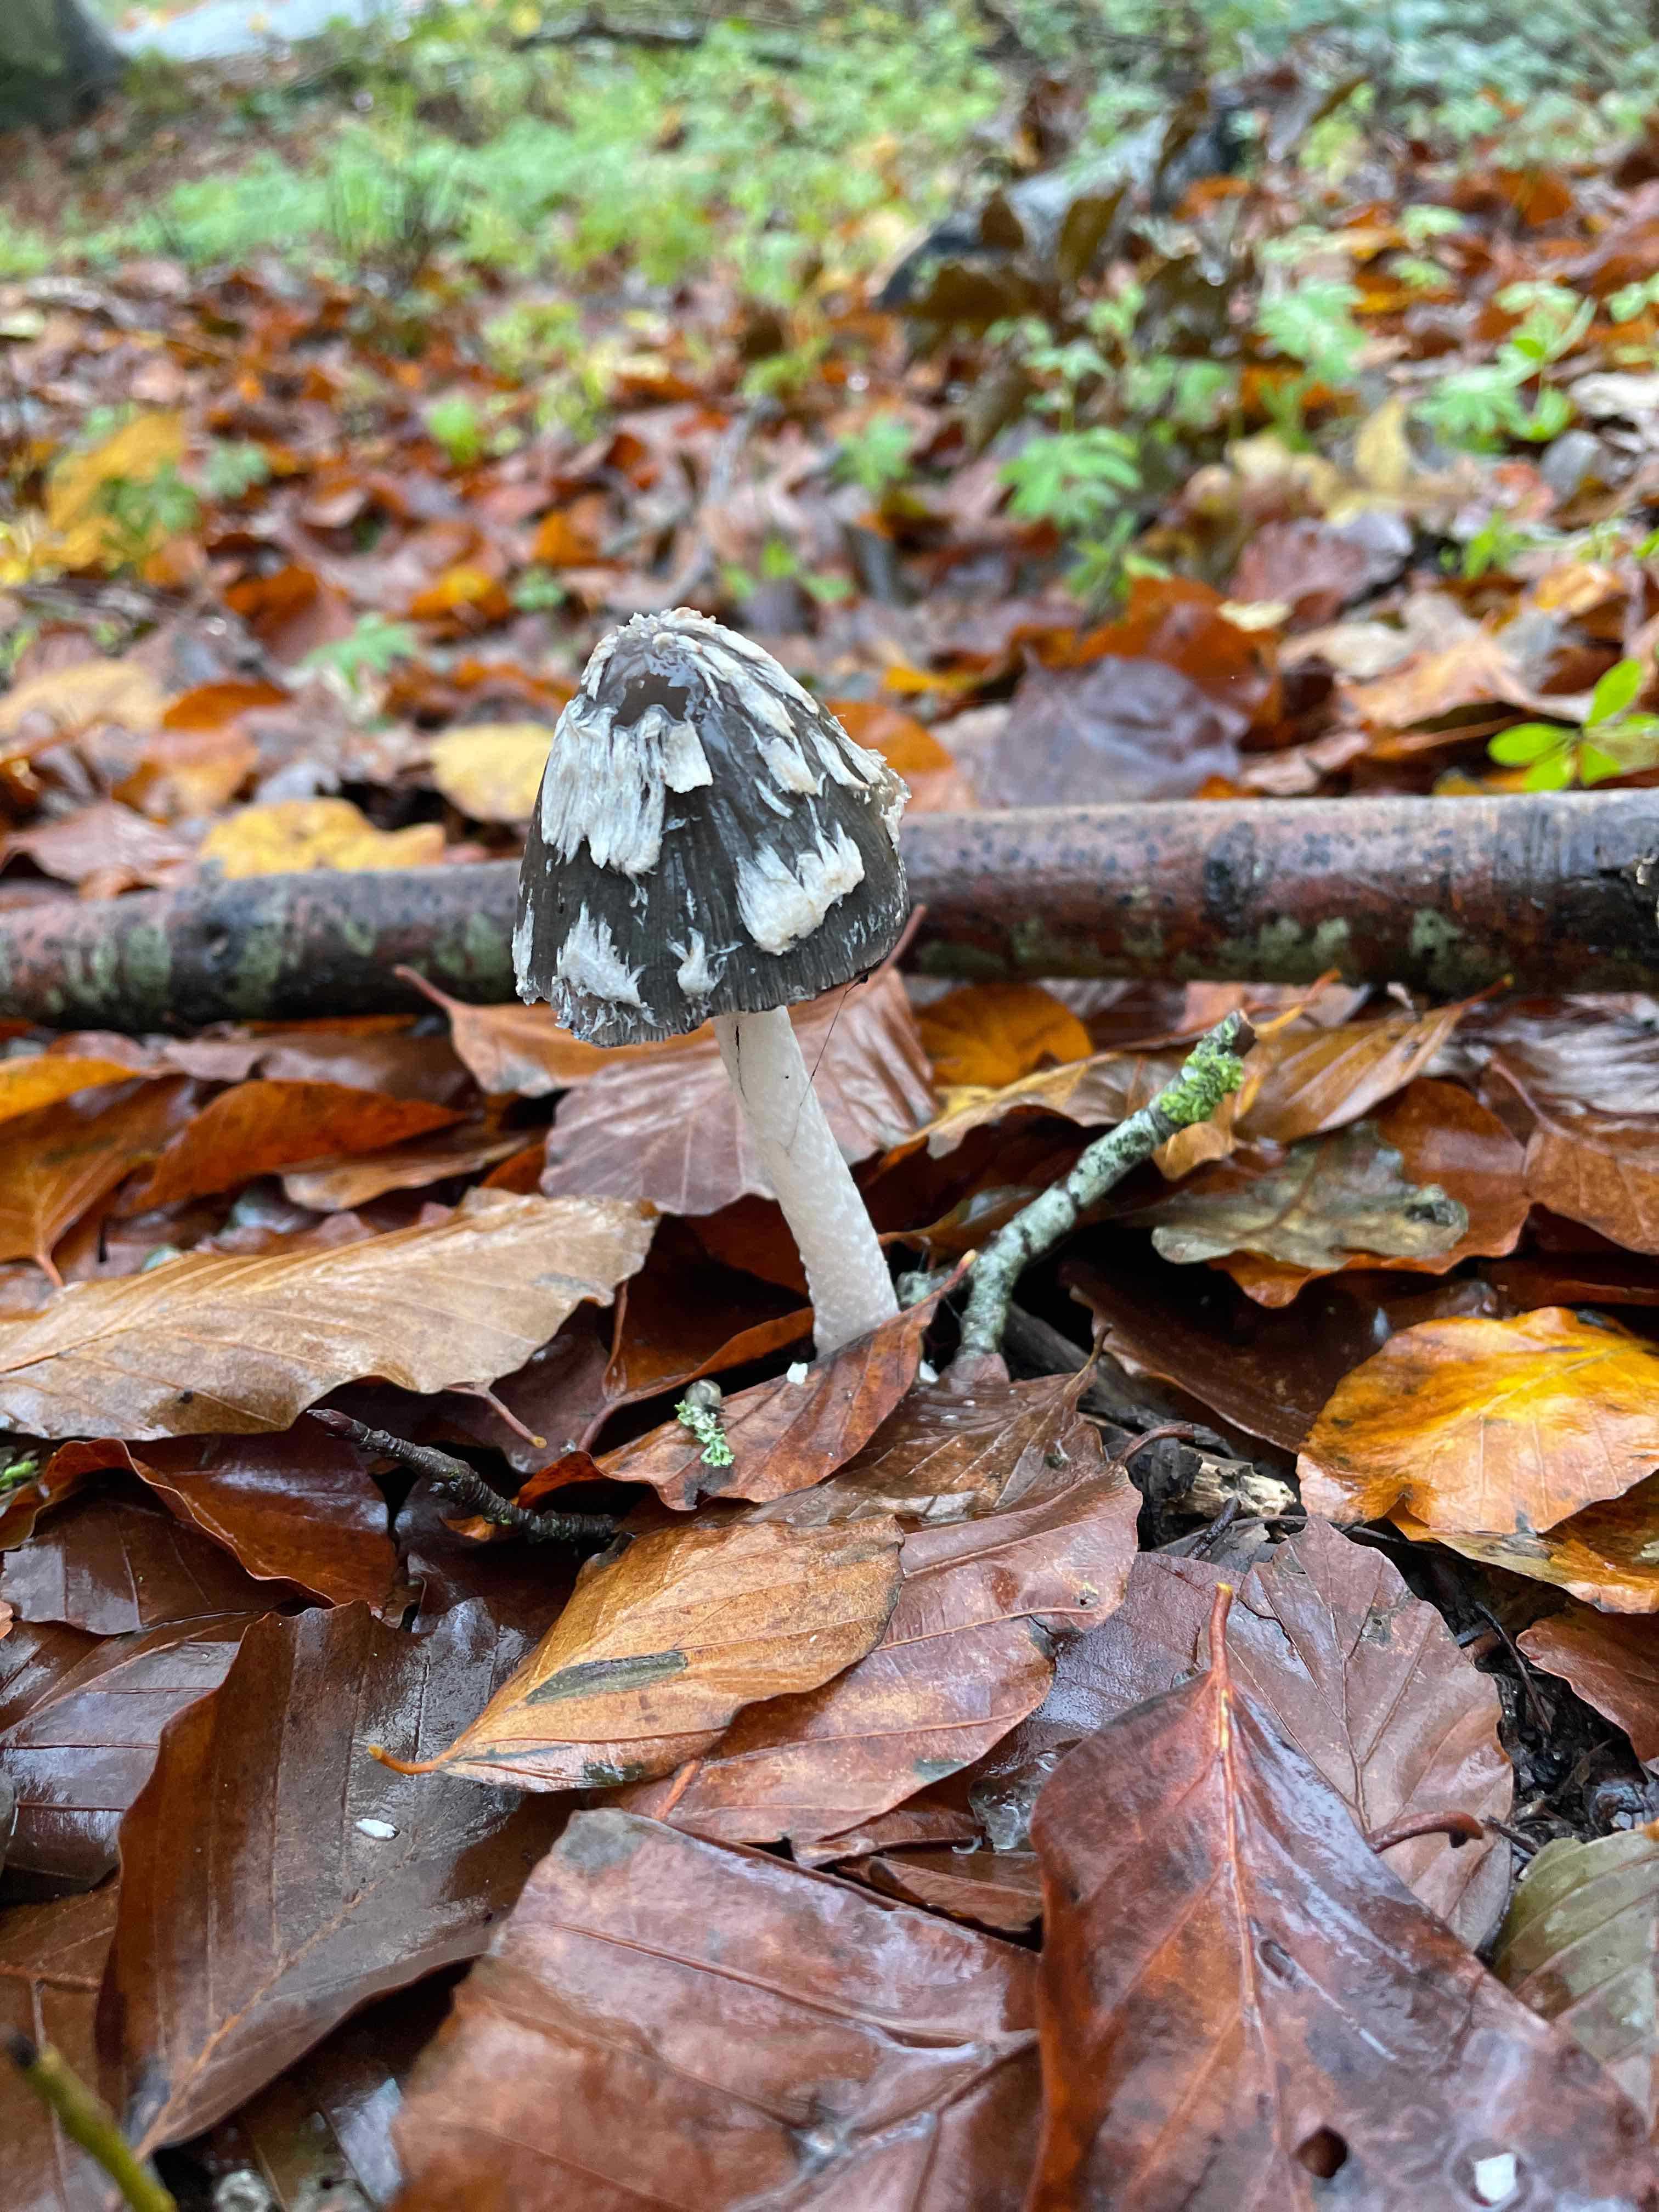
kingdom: Fungi
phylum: Basidiomycota
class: Agaricomycetes
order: Agaricales
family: Psathyrellaceae
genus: Coprinopsis
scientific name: Coprinopsis picacea
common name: skade-blækhat
